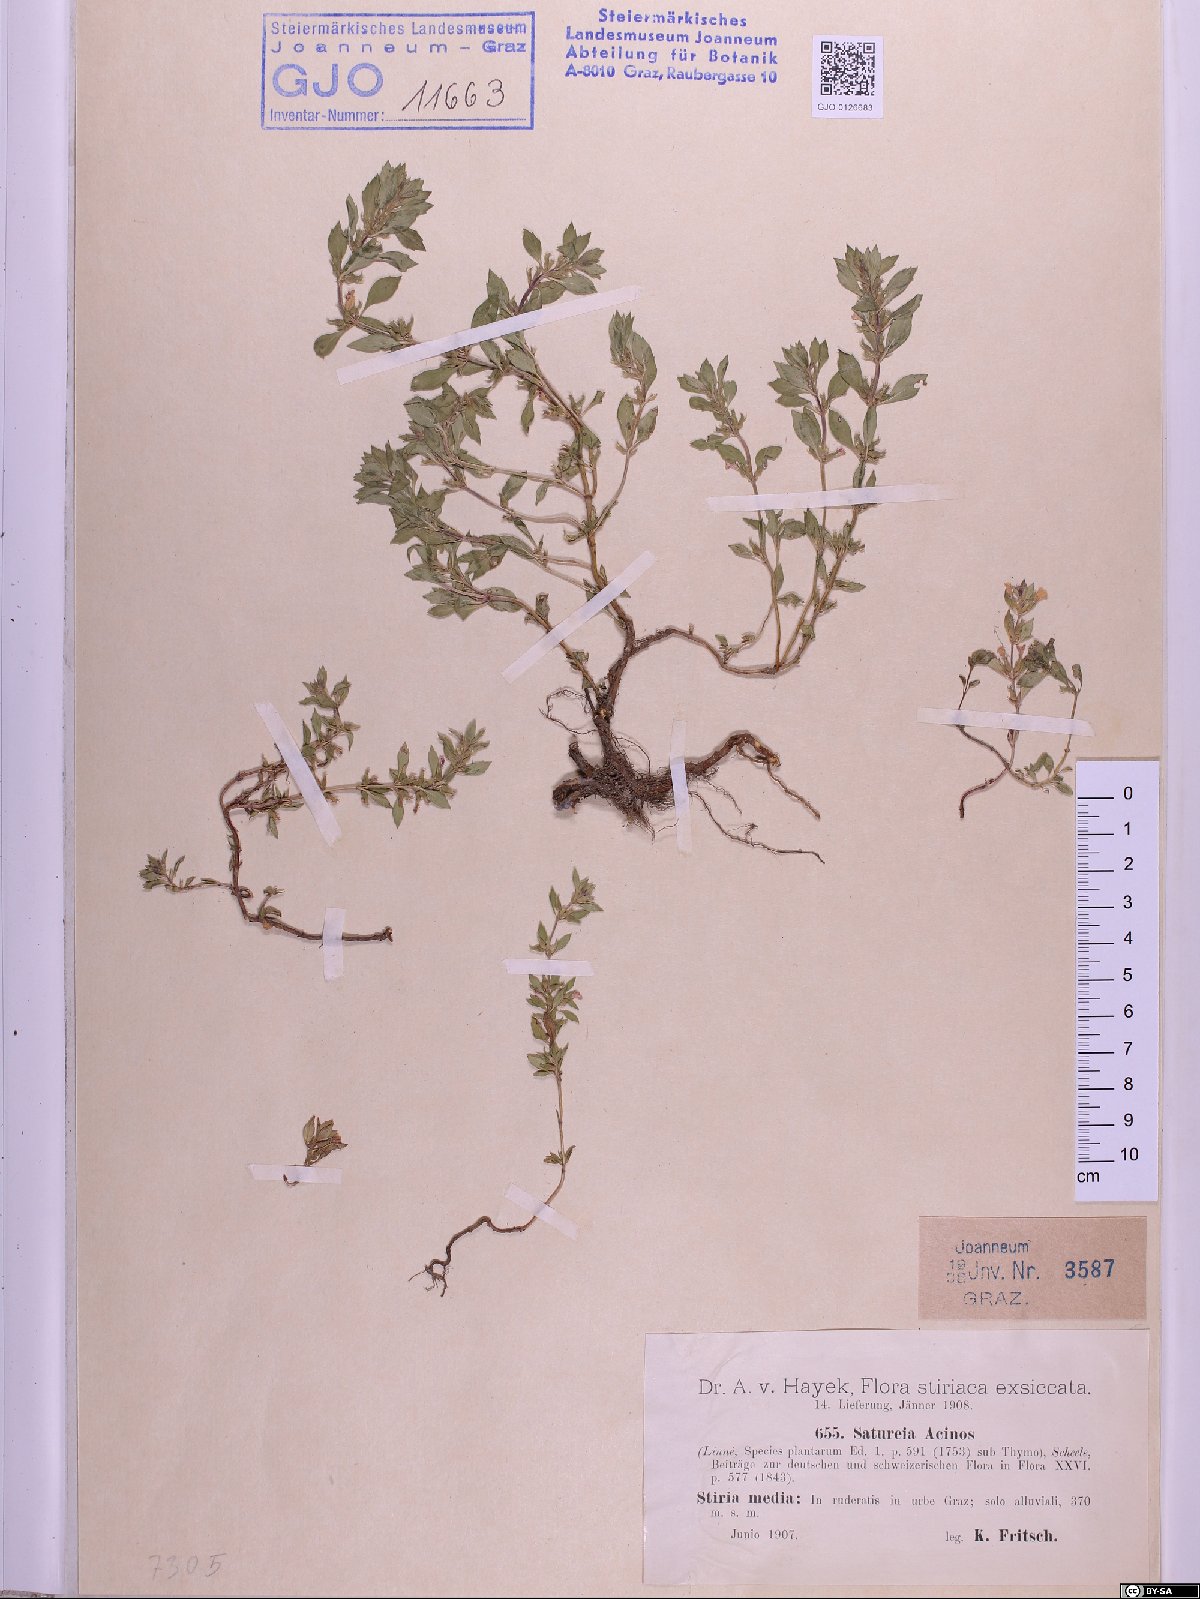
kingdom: Plantae
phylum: Tracheophyta
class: Magnoliopsida
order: Lamiales
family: Lamiaceae
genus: Clinopodium
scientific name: Clinopodium acinos
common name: Basil thyme
